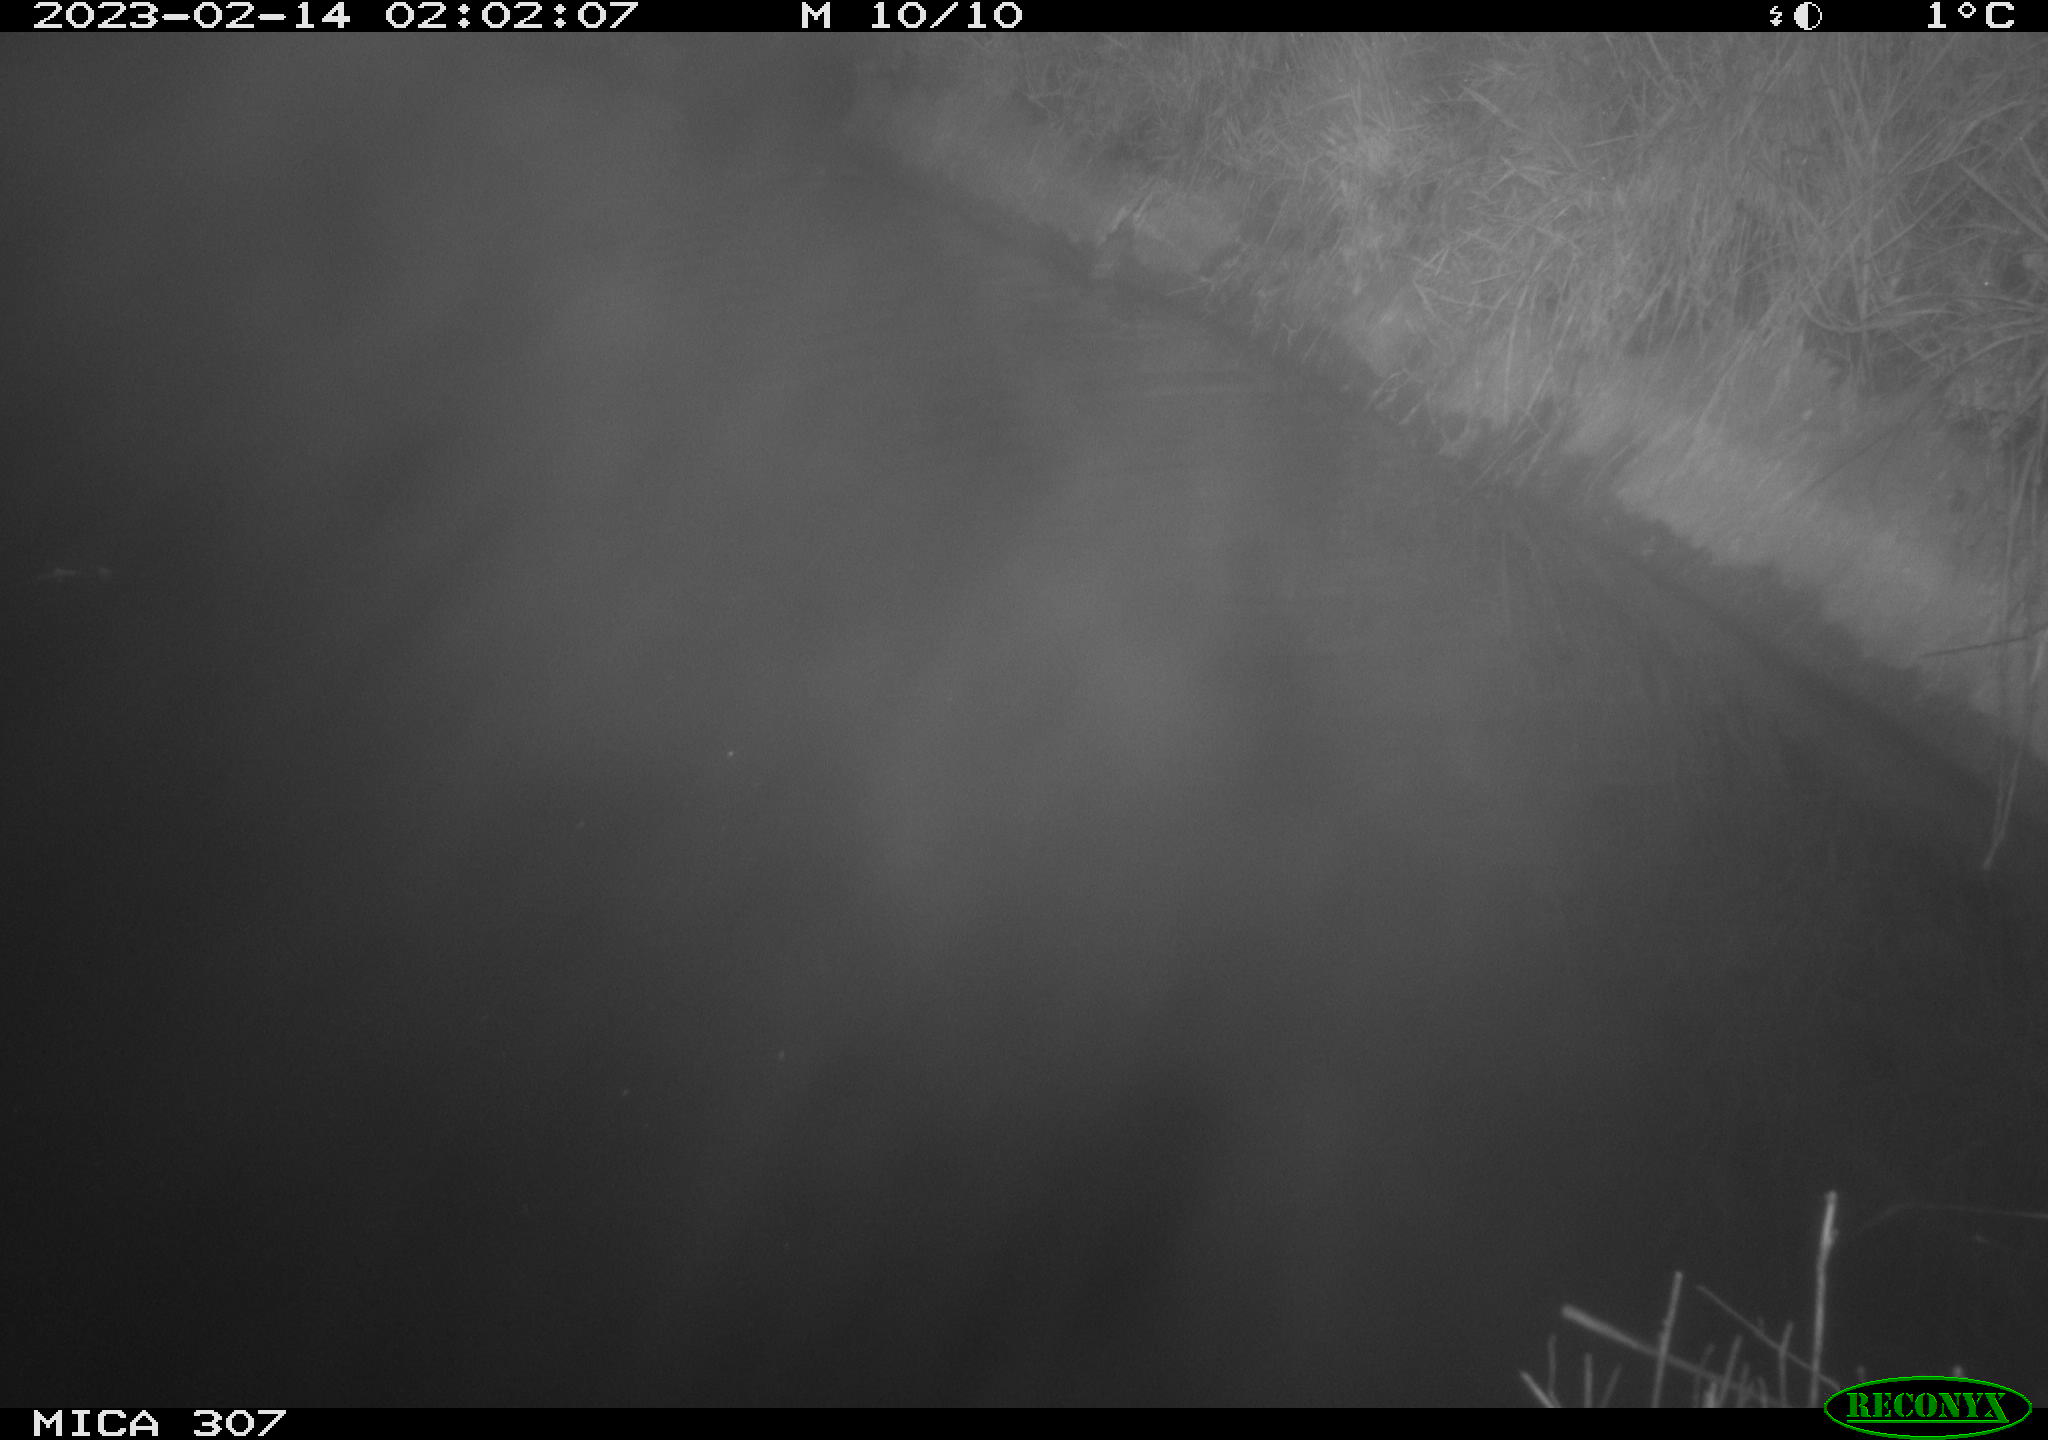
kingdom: Animalia
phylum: Chordata
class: Mammalia
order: Rodentia
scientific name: Rodentia
